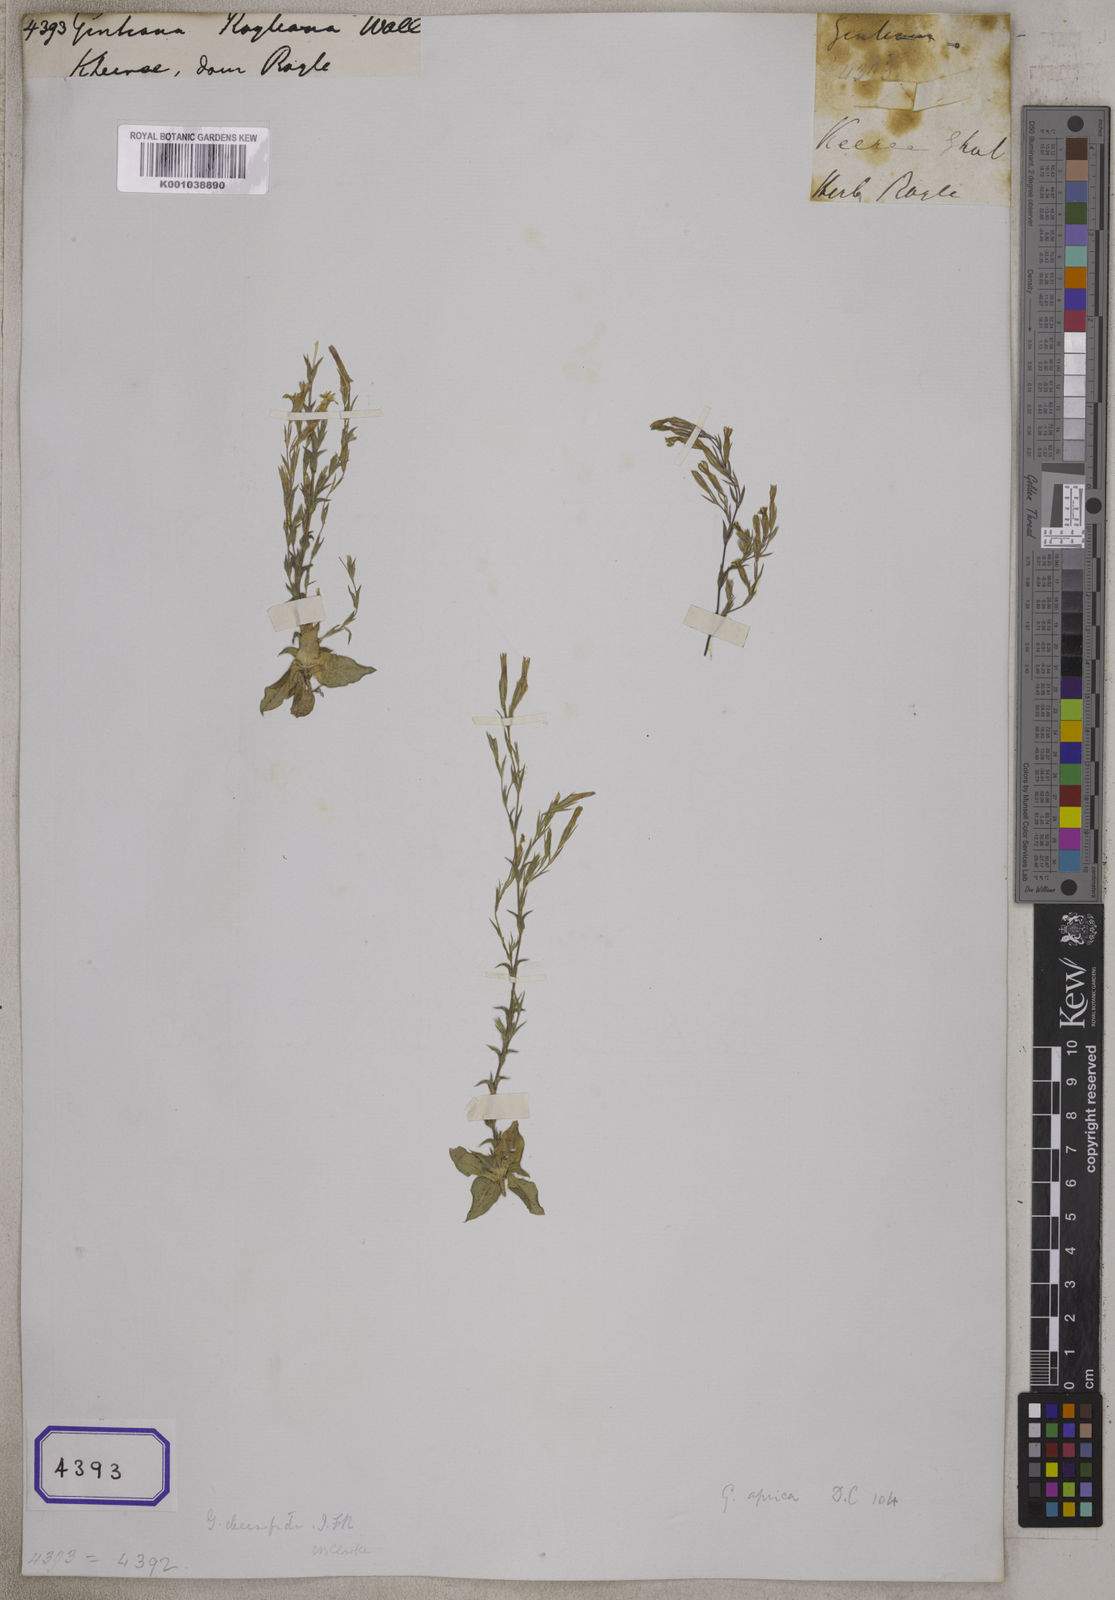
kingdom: Plantae
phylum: Tracheophyta
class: Magnoliopsida
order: Gentianales
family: Gentianaceae
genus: Gentiana
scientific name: Gentiana
